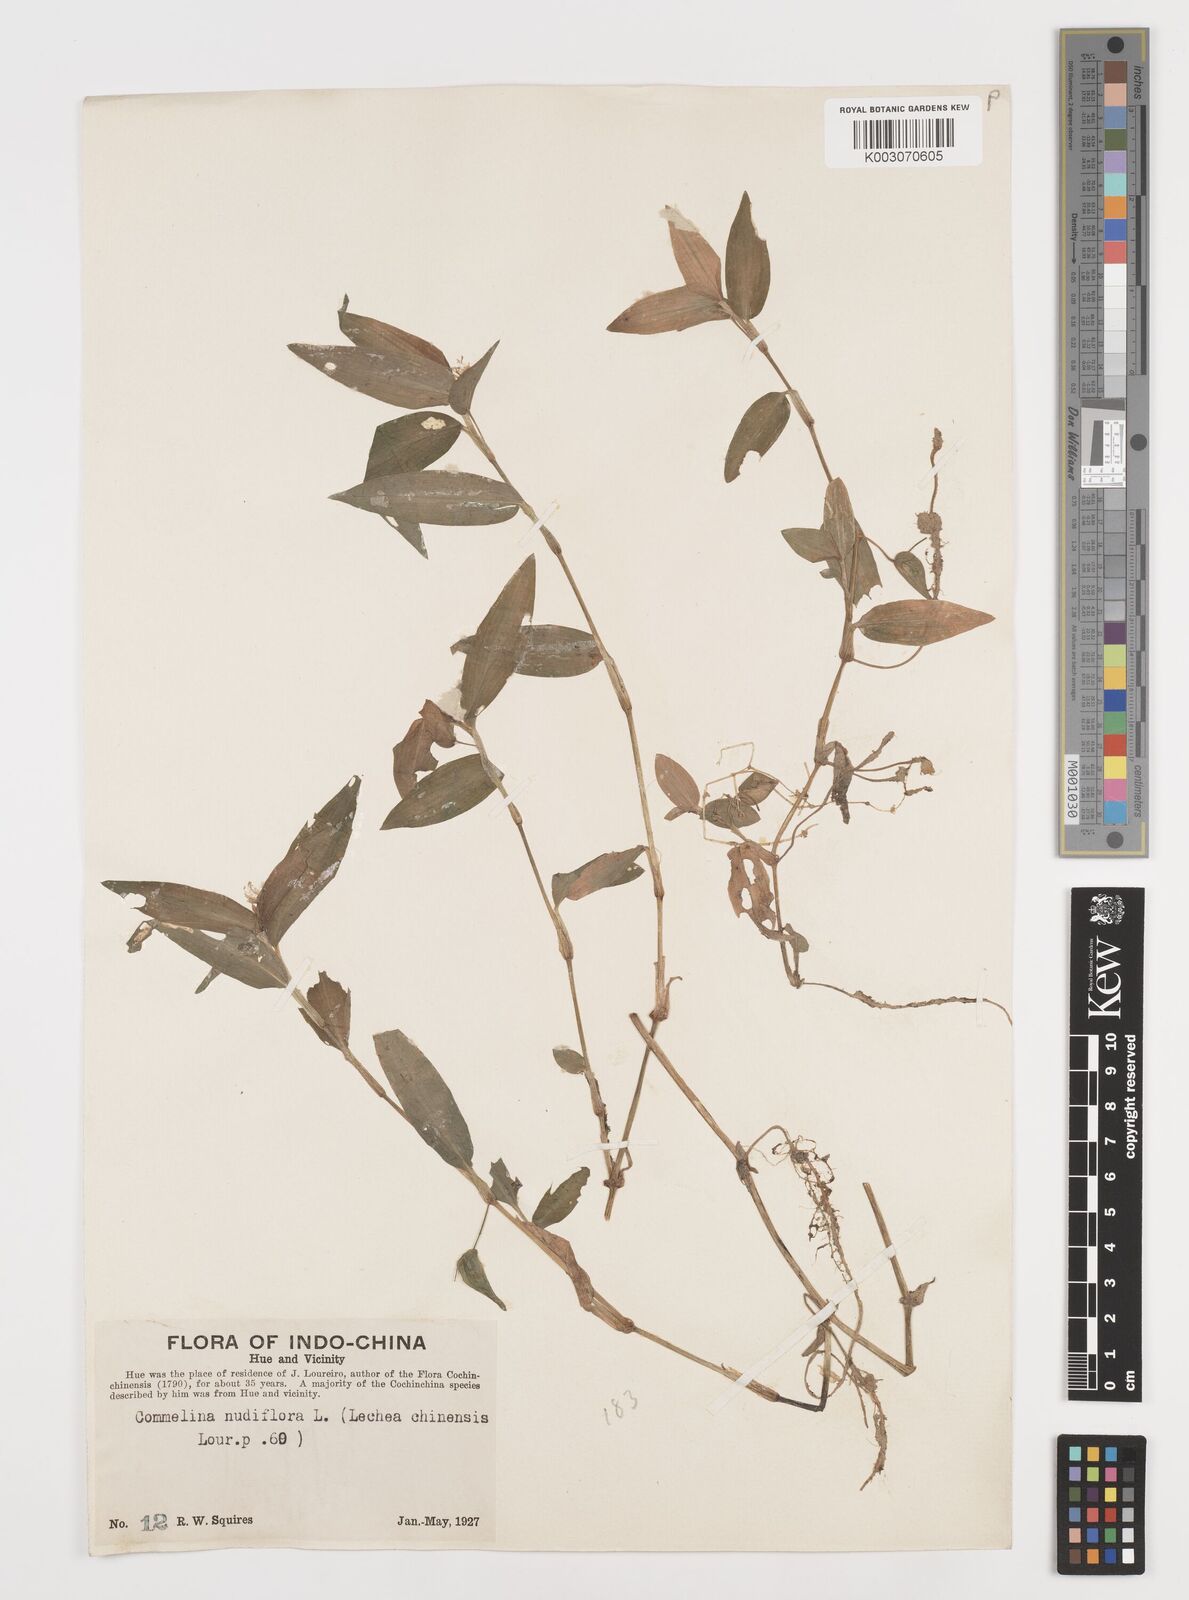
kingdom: Plantae
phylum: Tracheophyta
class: Liliopsida
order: Commelinales
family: Commelinaceae
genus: Commelina
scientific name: Commelina clavata
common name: Willow leaved dayflower
